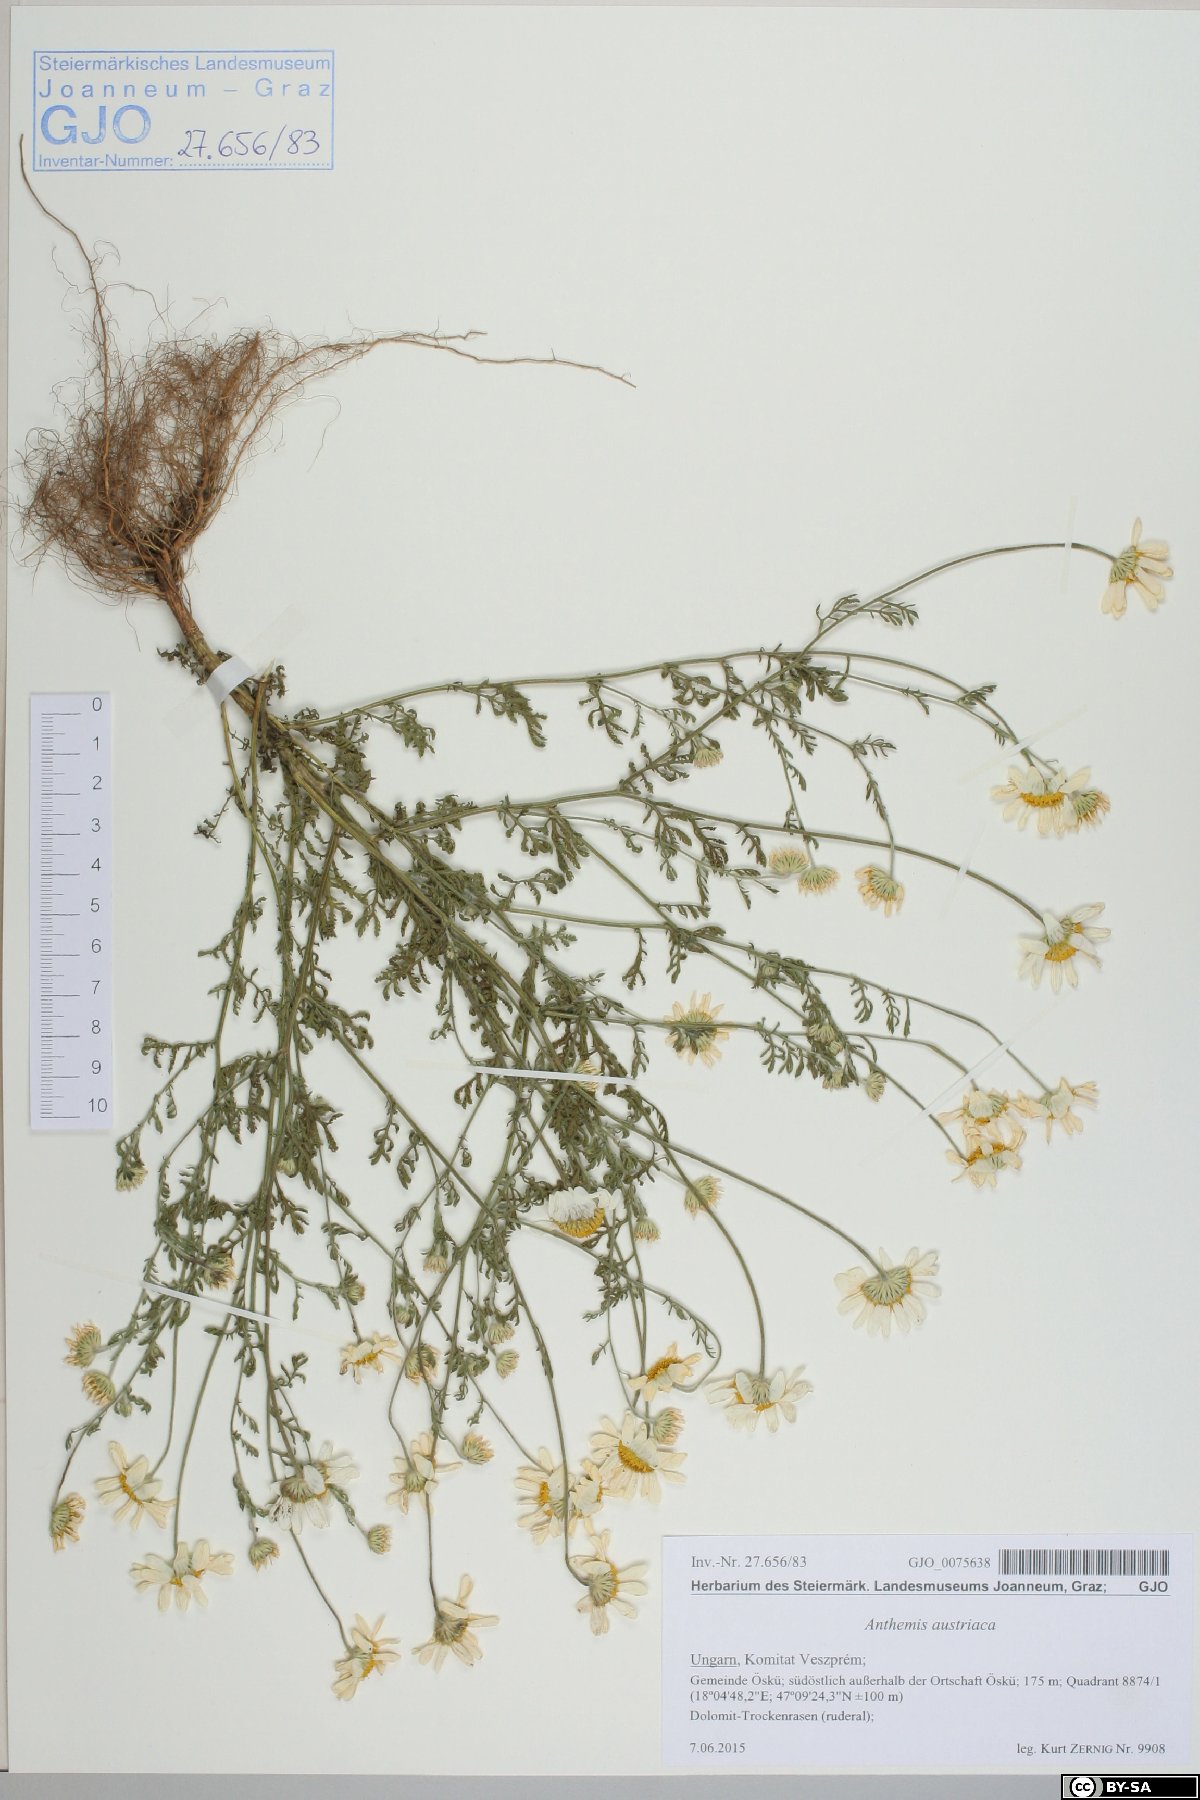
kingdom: Plantae
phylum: Tracheophyta
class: Magnoliopsida
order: Asterales
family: Asteraceae
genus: Cota
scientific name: Cota austriaca
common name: Austrian chamomile
